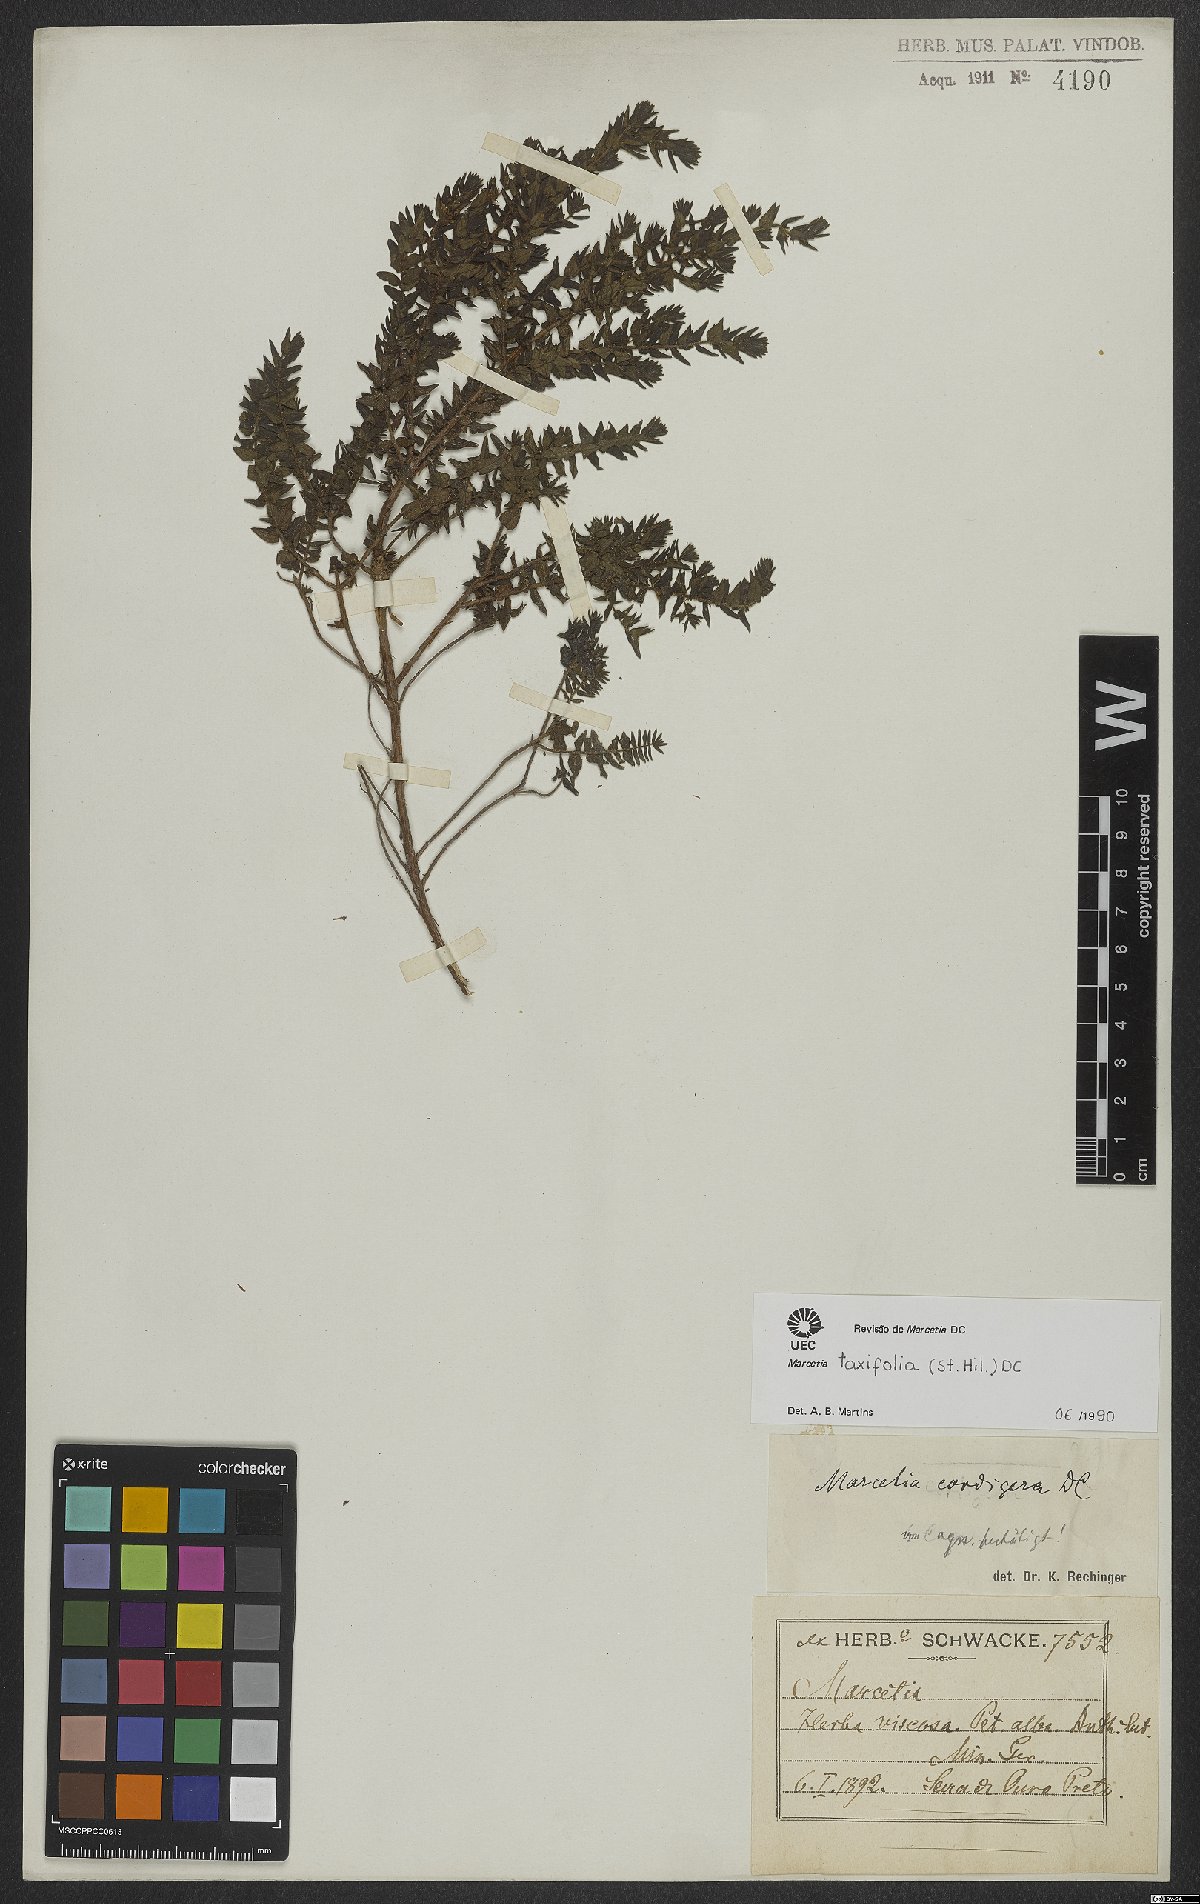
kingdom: Plantae
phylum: Tracheophyta
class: Magnoliopsida
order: Myrtales
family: Melastomataceae
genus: Marcetia
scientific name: Marcetia taxifolia
